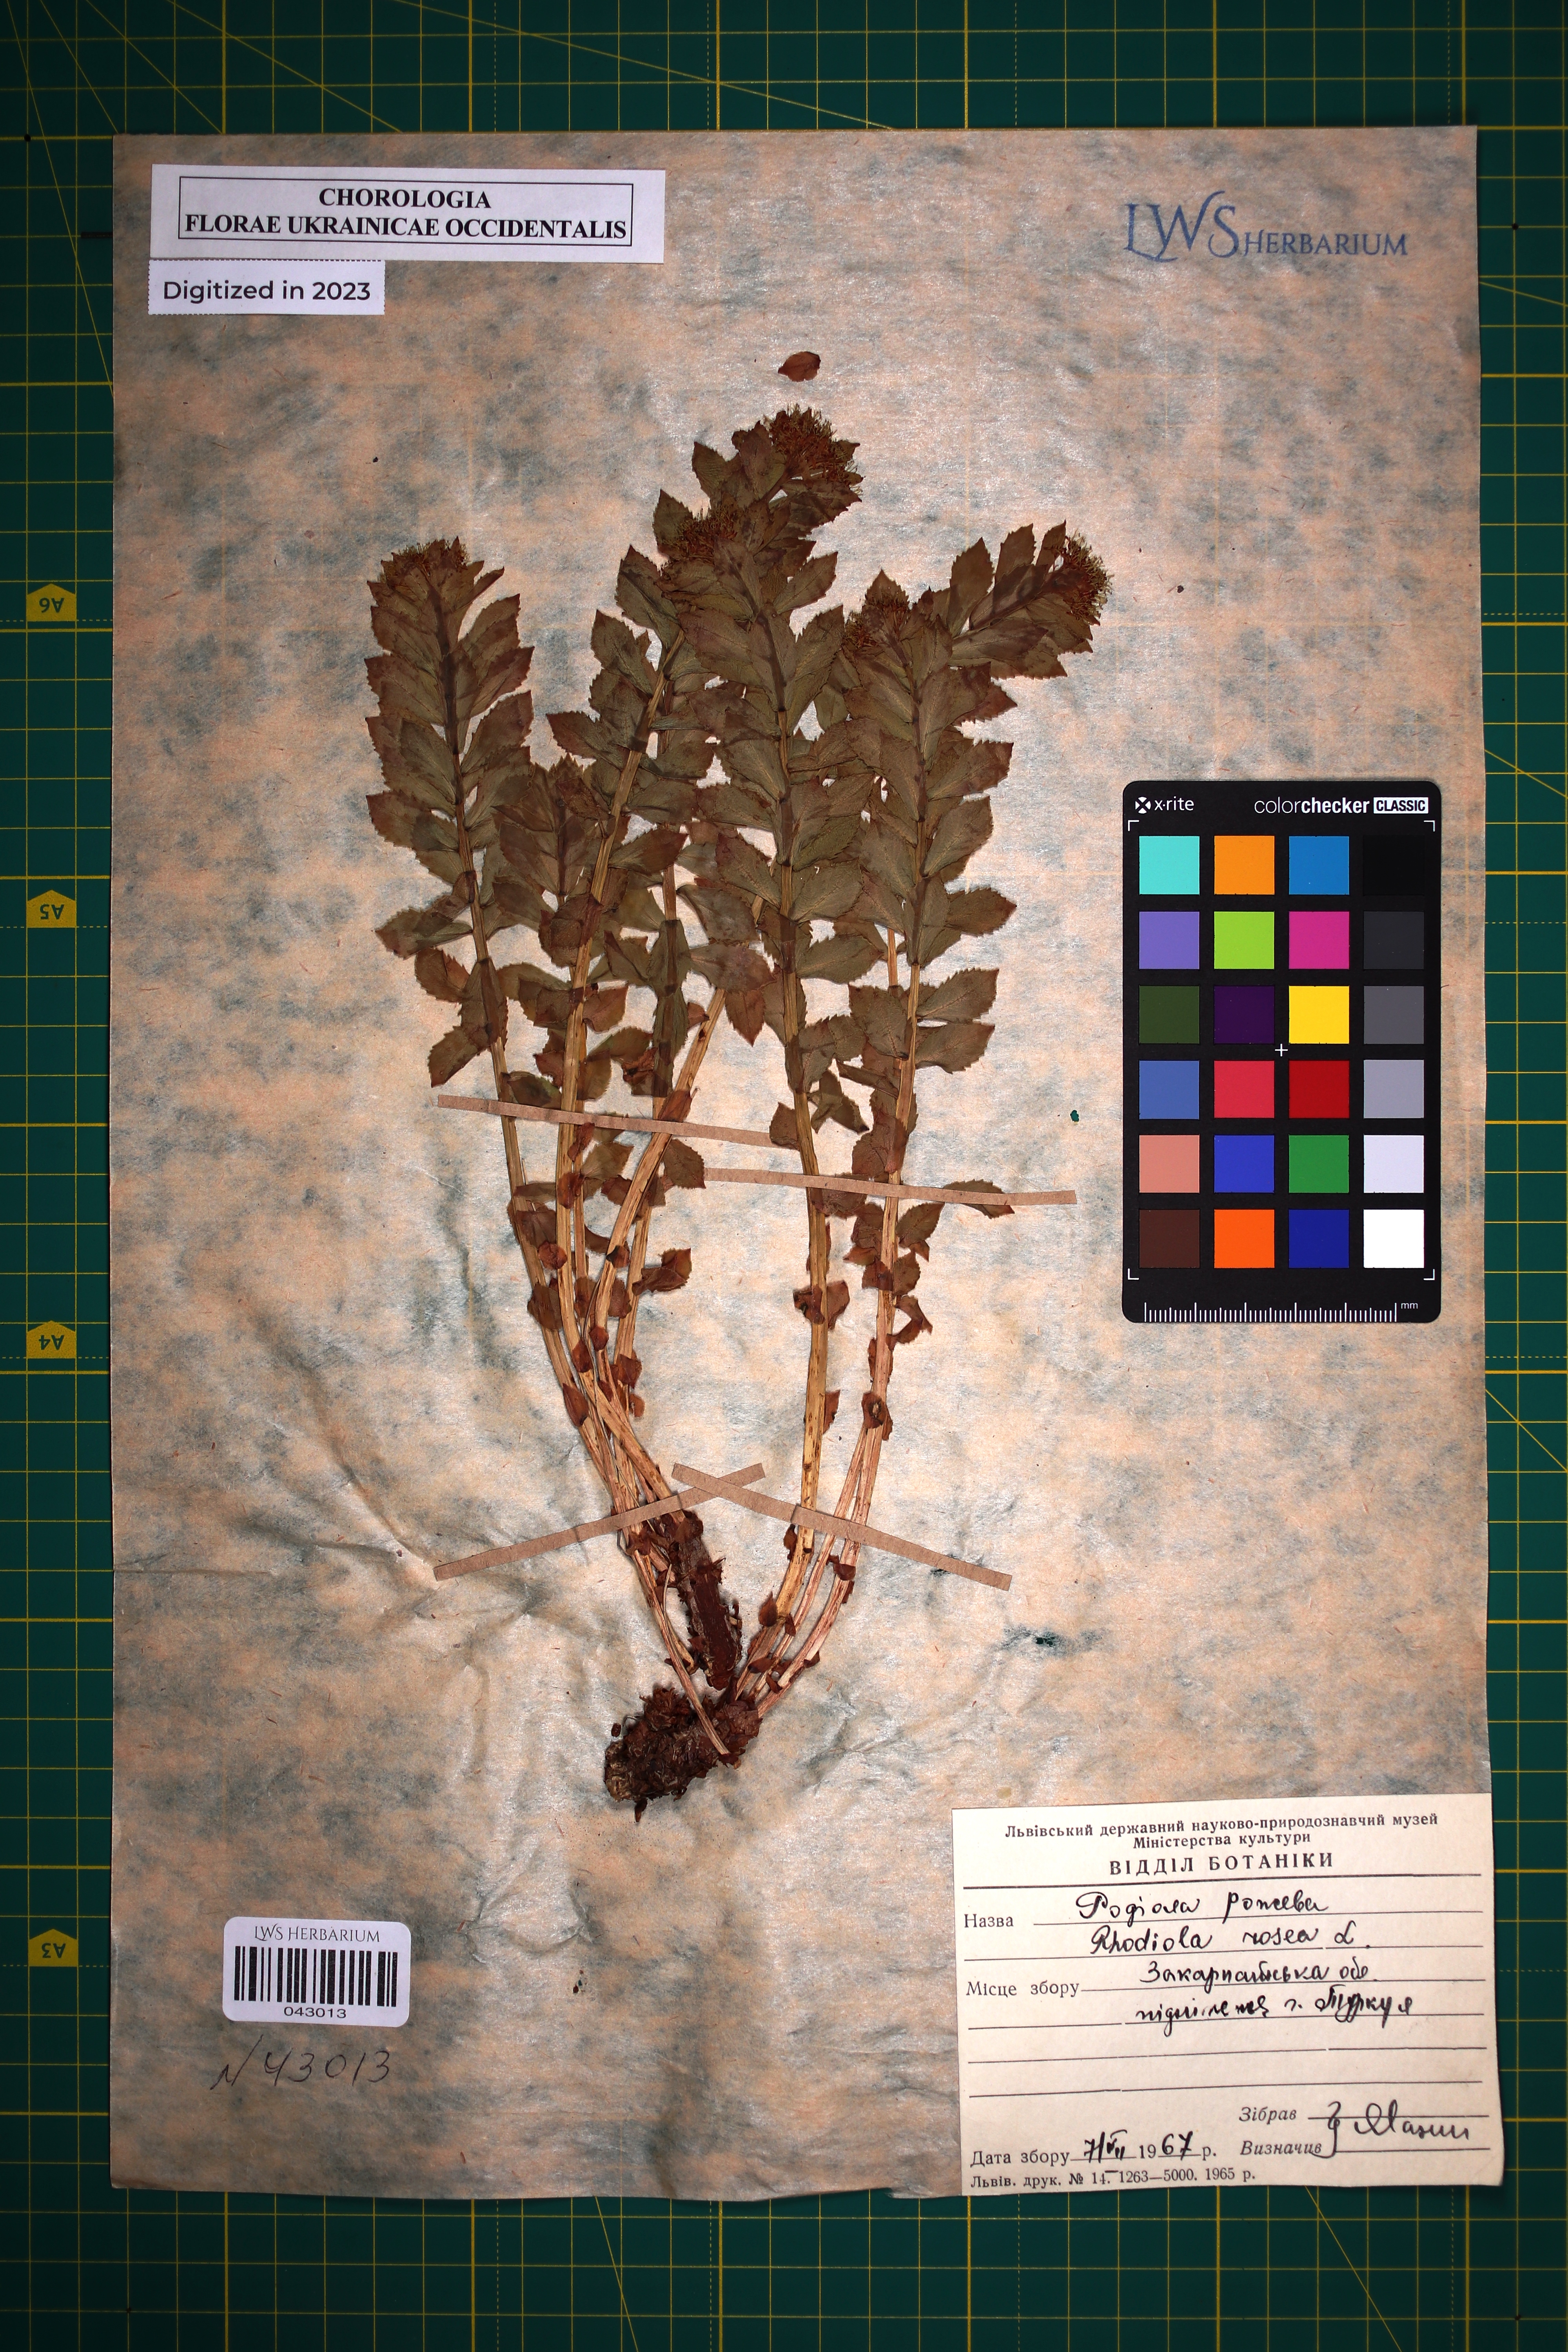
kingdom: Plantae
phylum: Tracheophyta
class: Magnoliopsida
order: Saxifragales
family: Crassulaceae
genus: Rhodiola
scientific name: Rhodiola rosea
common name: Roseroot
